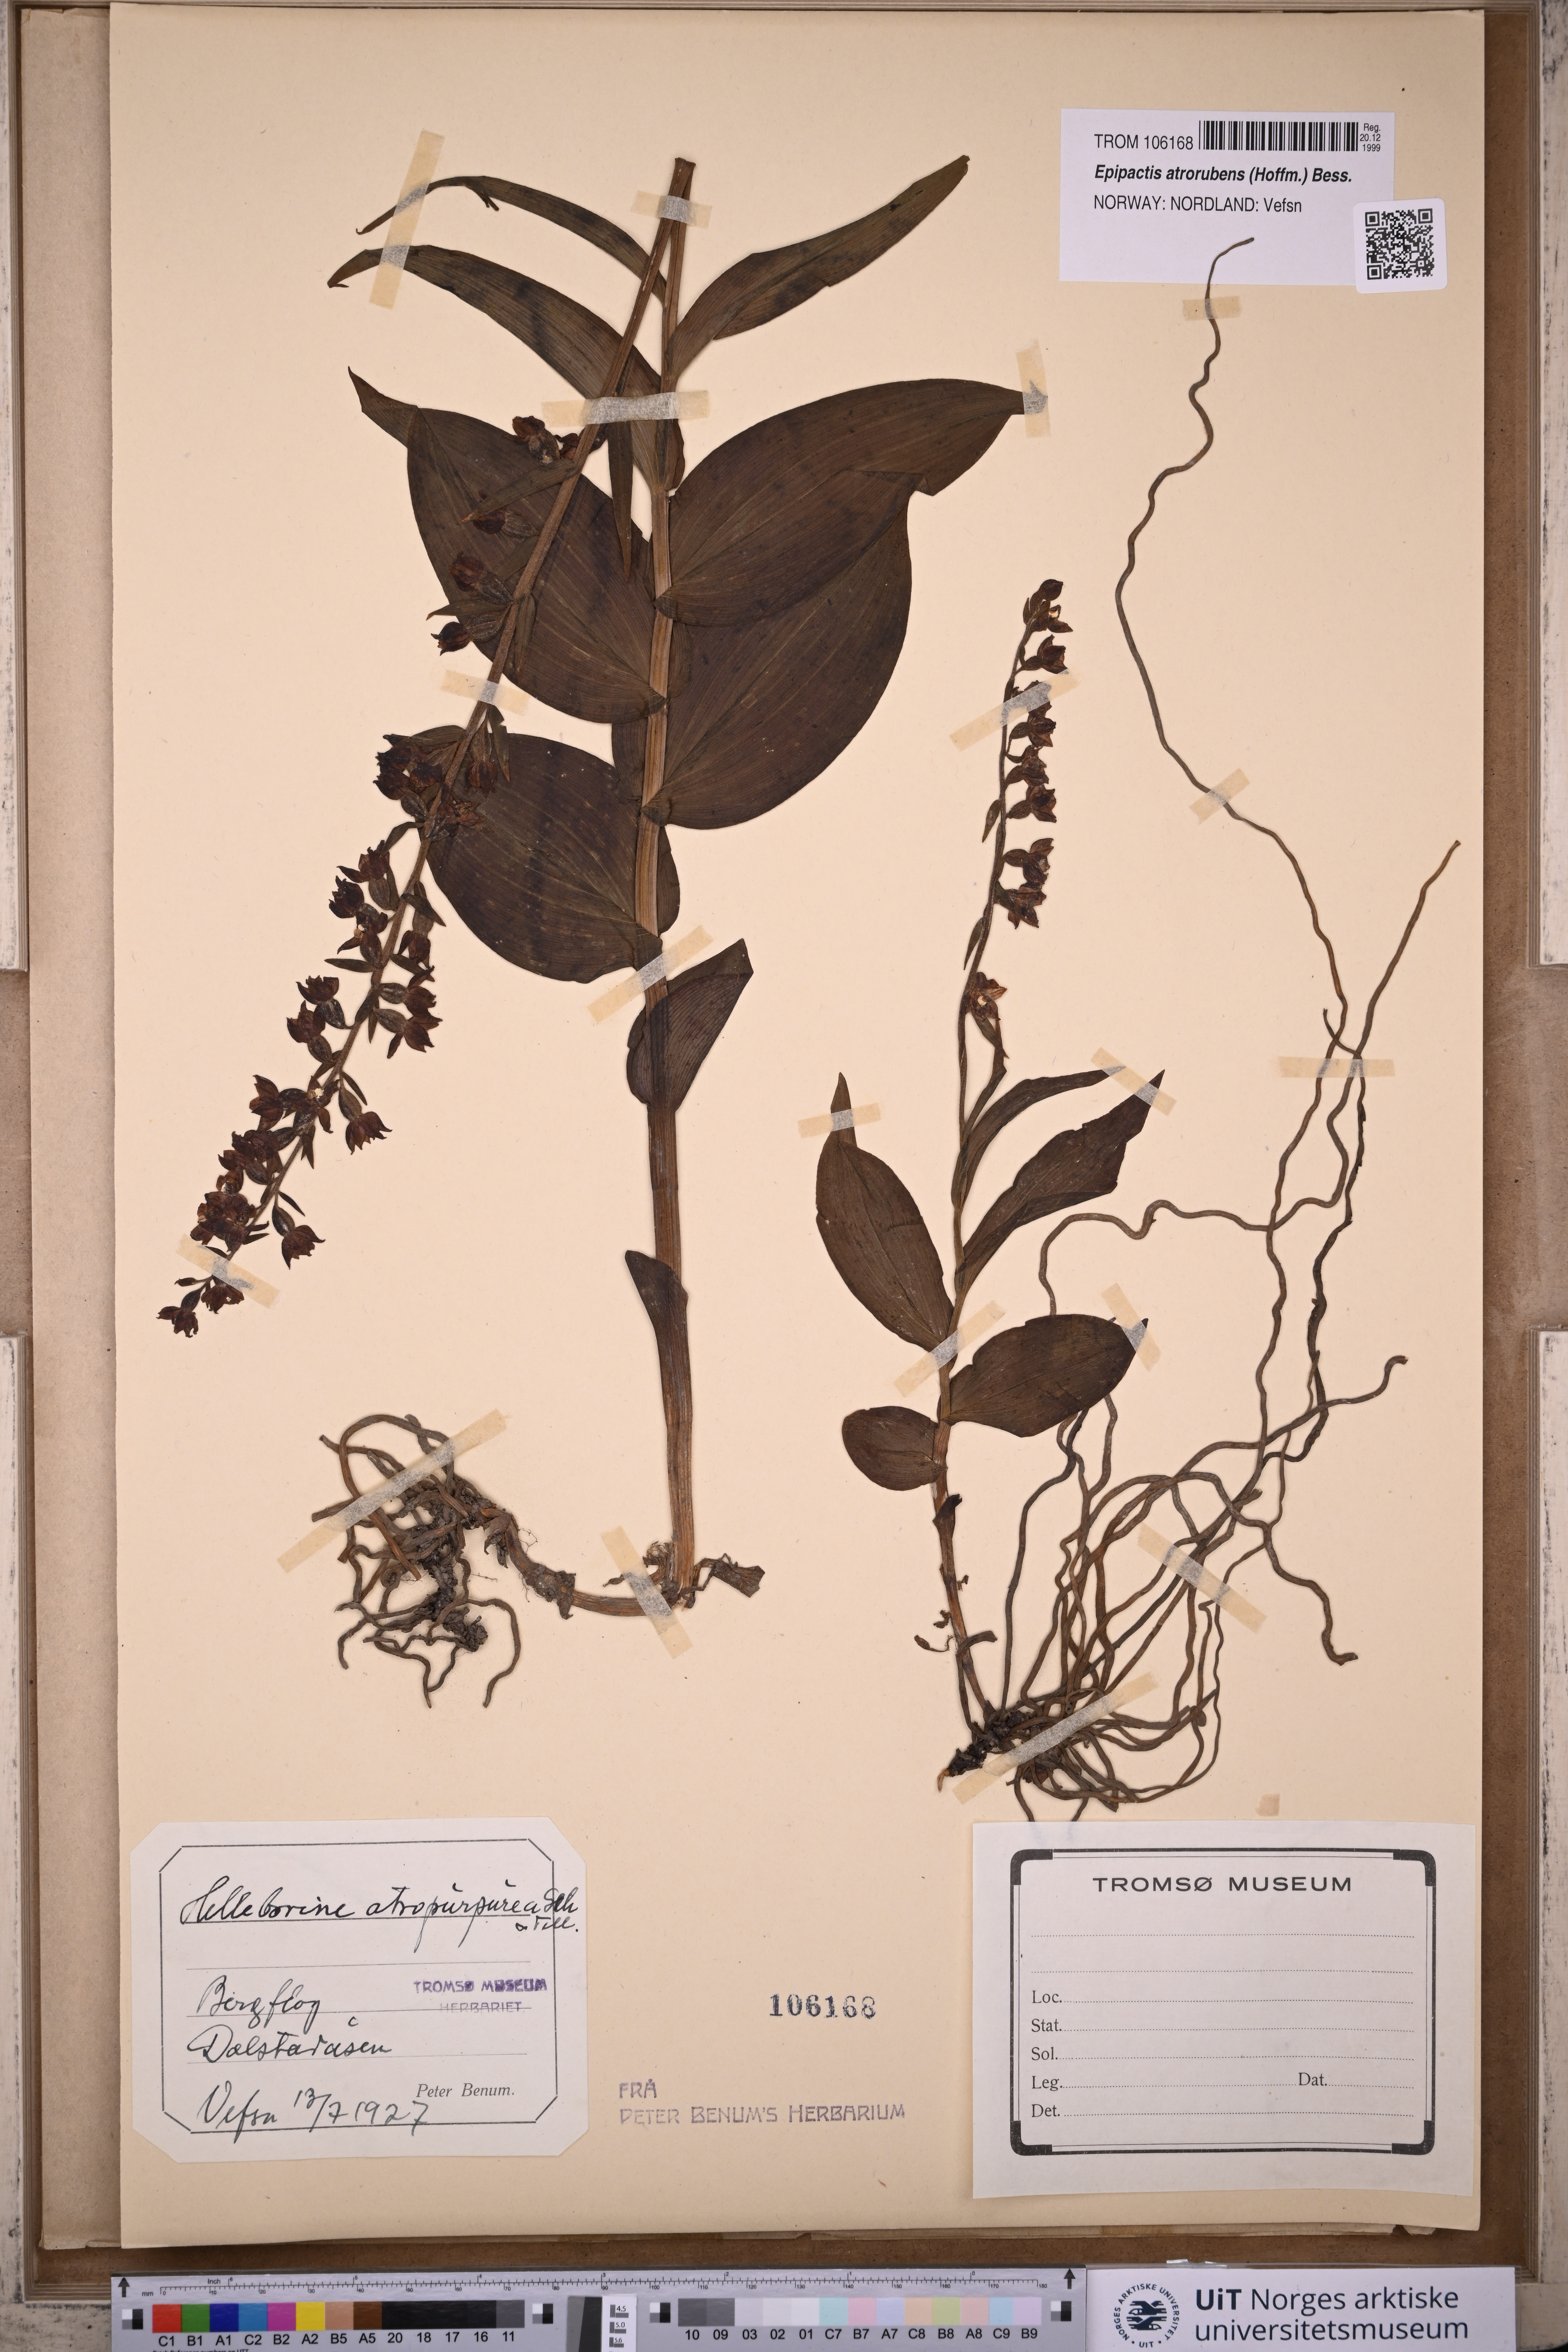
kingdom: Plantae
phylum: Tracheophyta
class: Liliopsida
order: Asparagales
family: Orchidaceae
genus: Epipactis
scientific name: Epipactis atrorubens
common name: Dark-red helleborine
